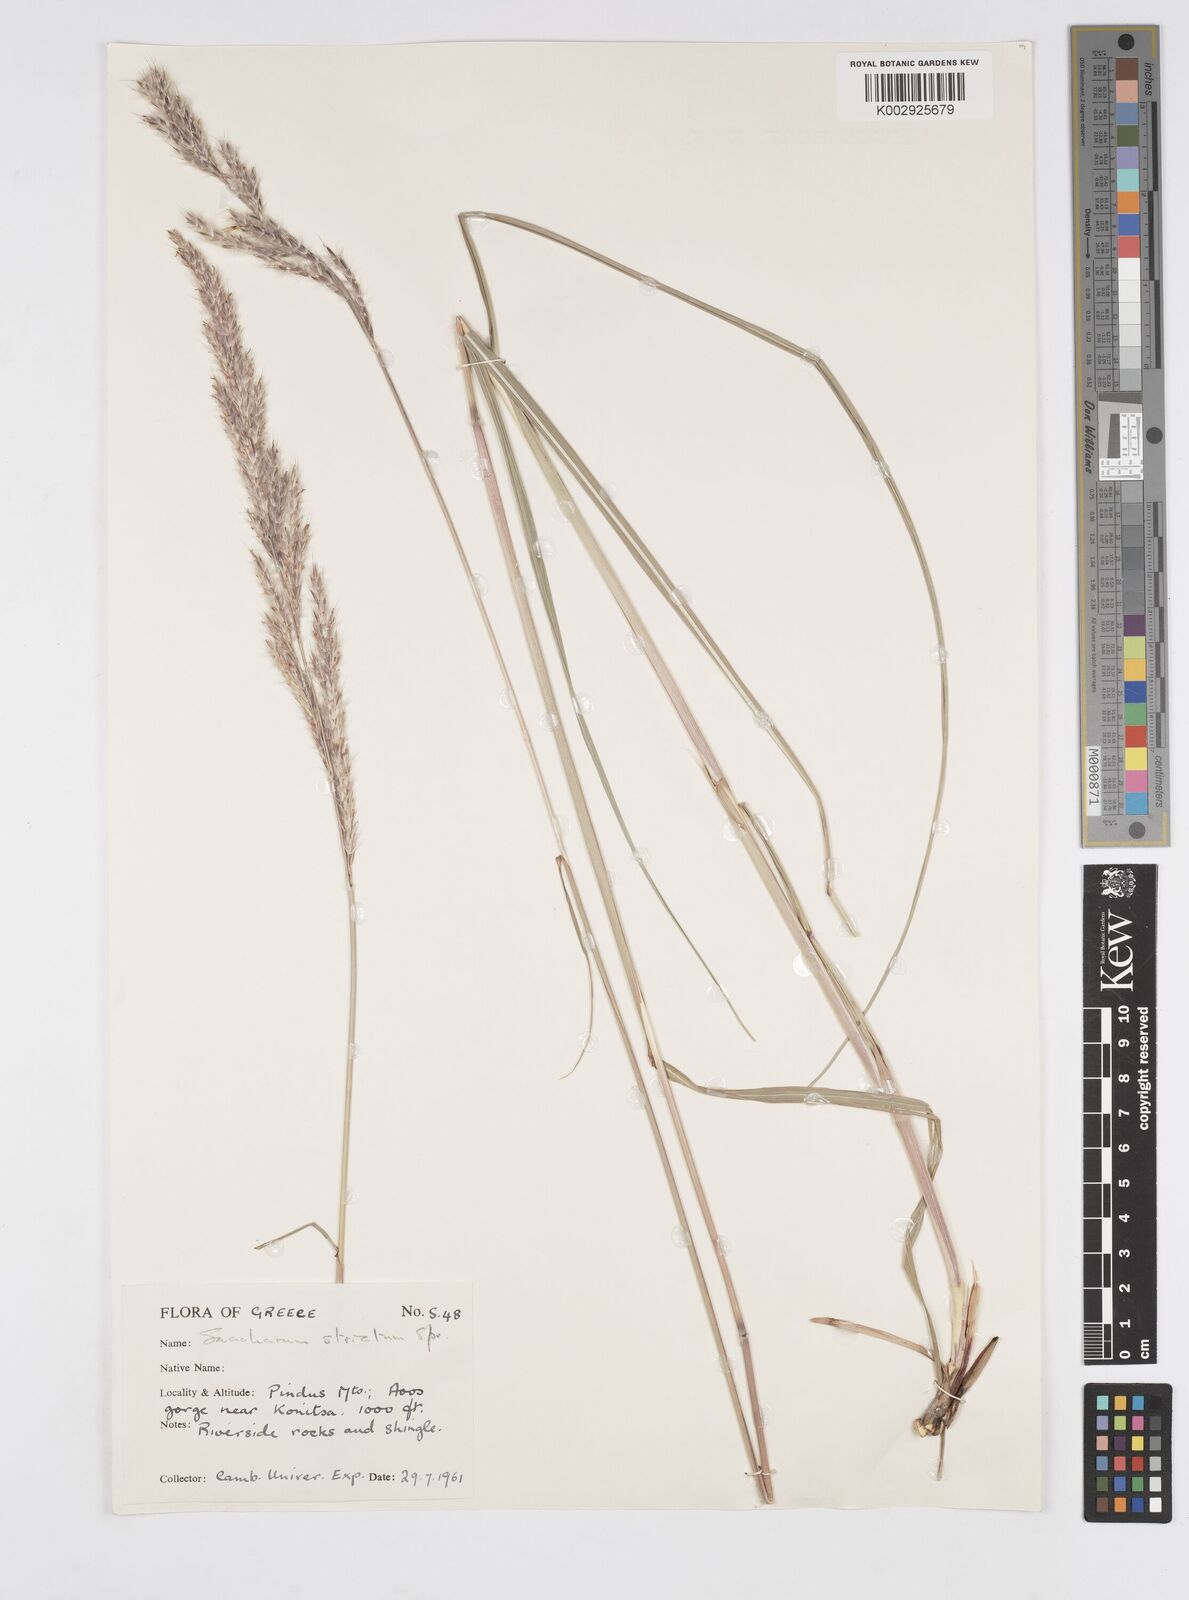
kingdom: Plantae
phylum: Tracheophyta
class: Liliopsida
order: Poales
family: Poaceae
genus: Saccharum
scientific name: Saccharum
